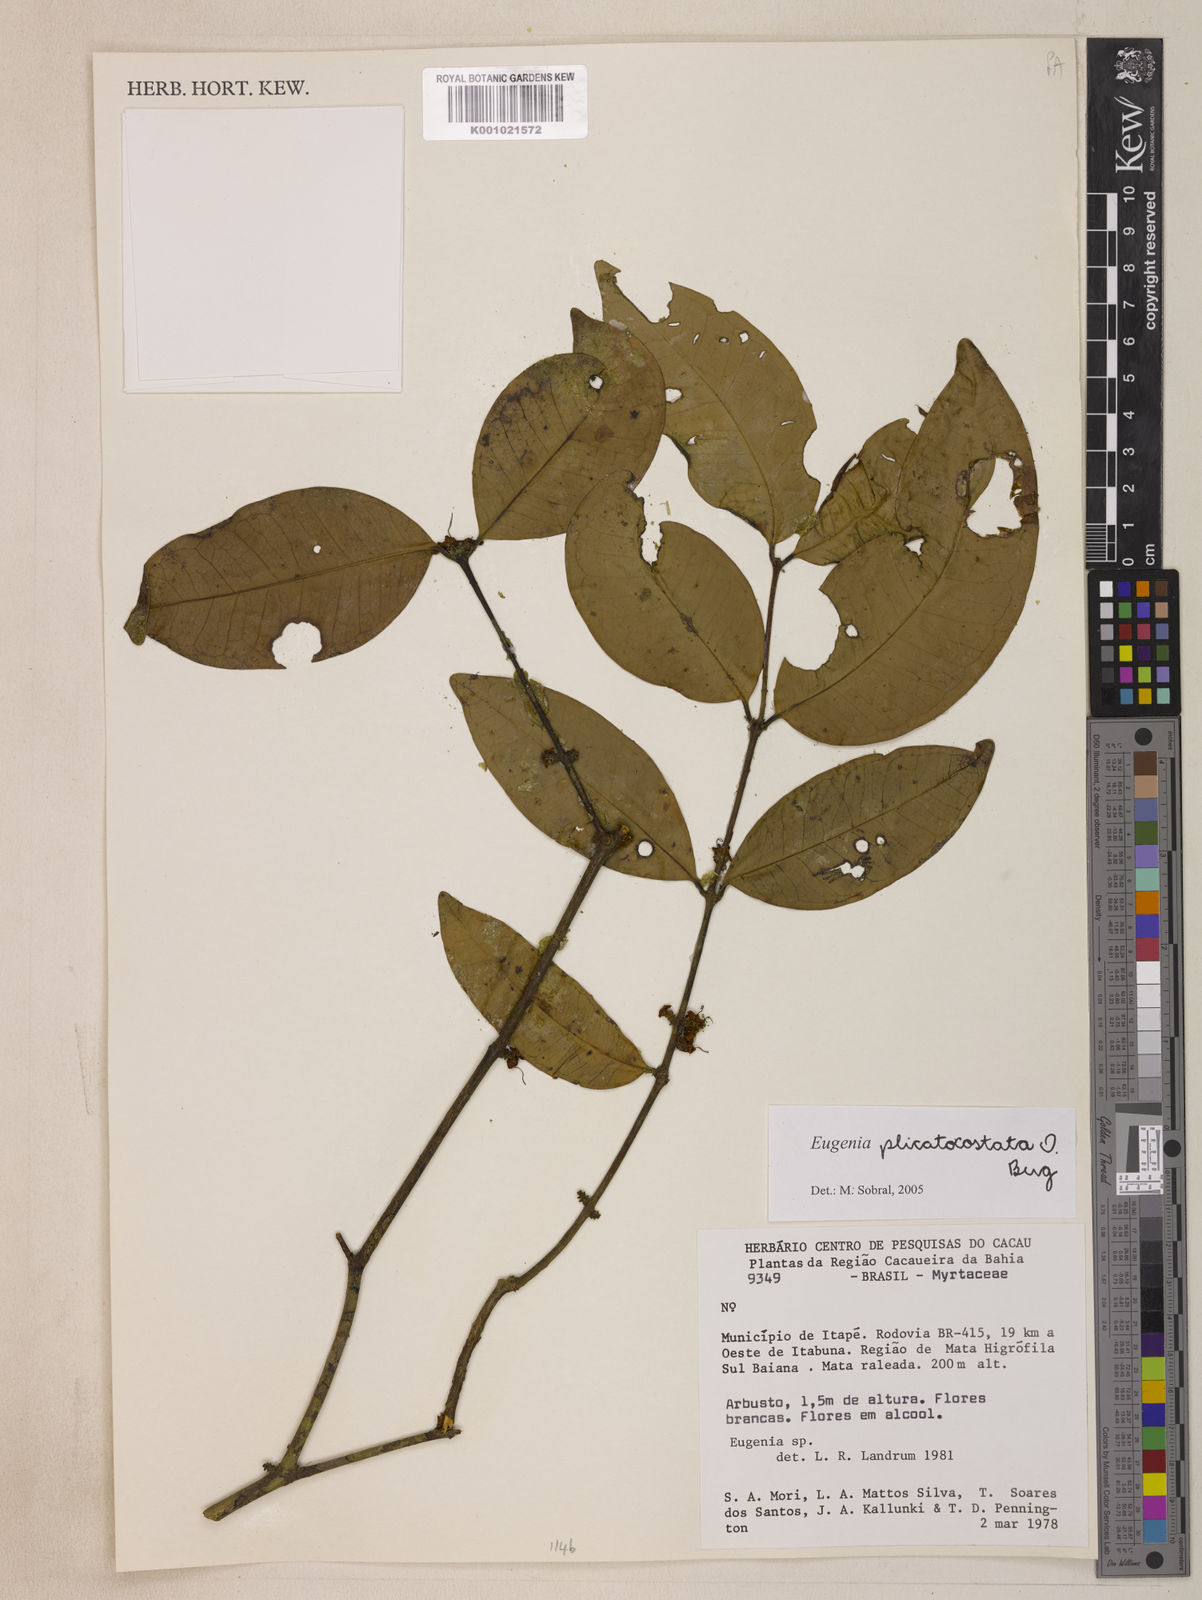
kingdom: Plantae
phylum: Tracheophyta
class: Magnoliopsida
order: Myrtales
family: Myrtaceae
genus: Eugenia
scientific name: Eugenia plicatocostata
